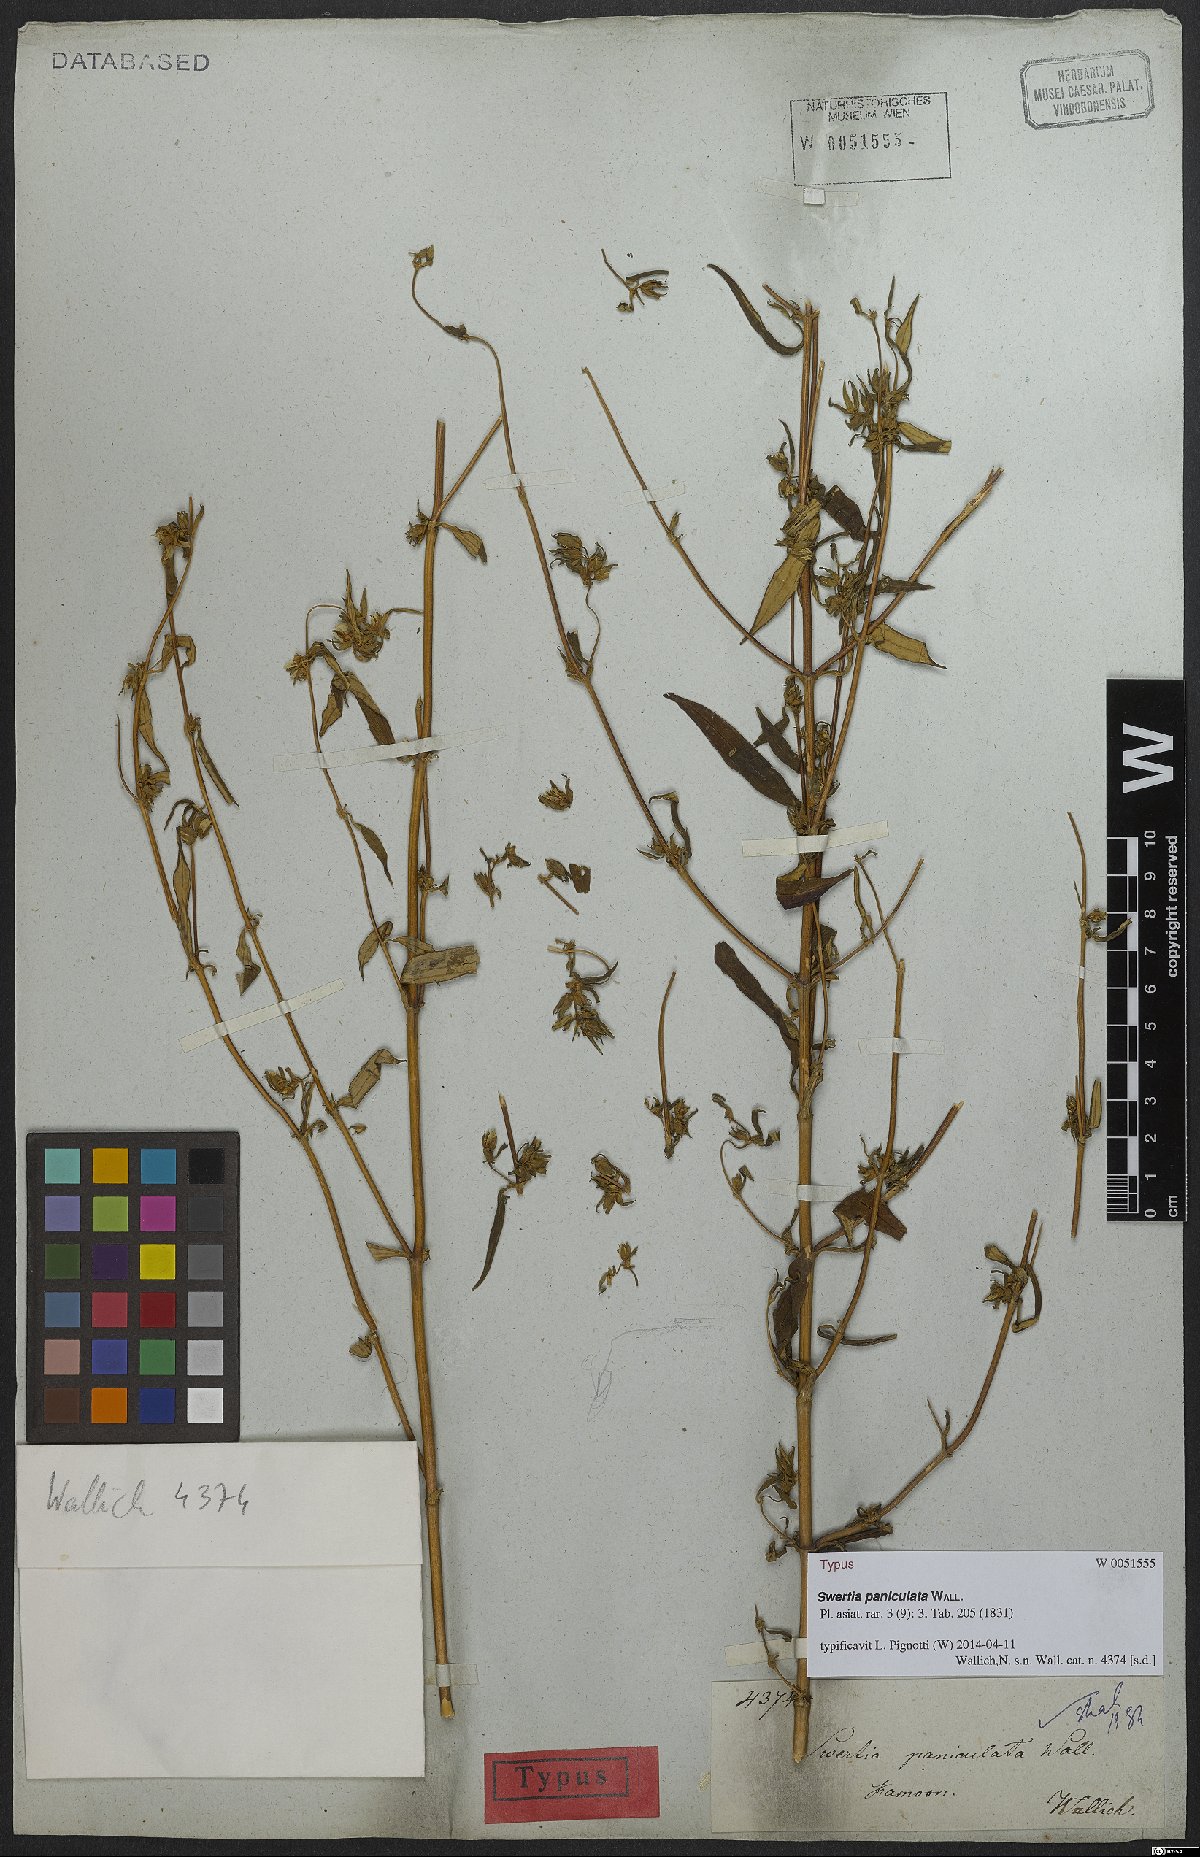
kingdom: Plantae
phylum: Tracheophyta
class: Magnoliopsida
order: Gentianales
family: Gentianaceae
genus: Swertia
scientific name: Swertia paniculata
